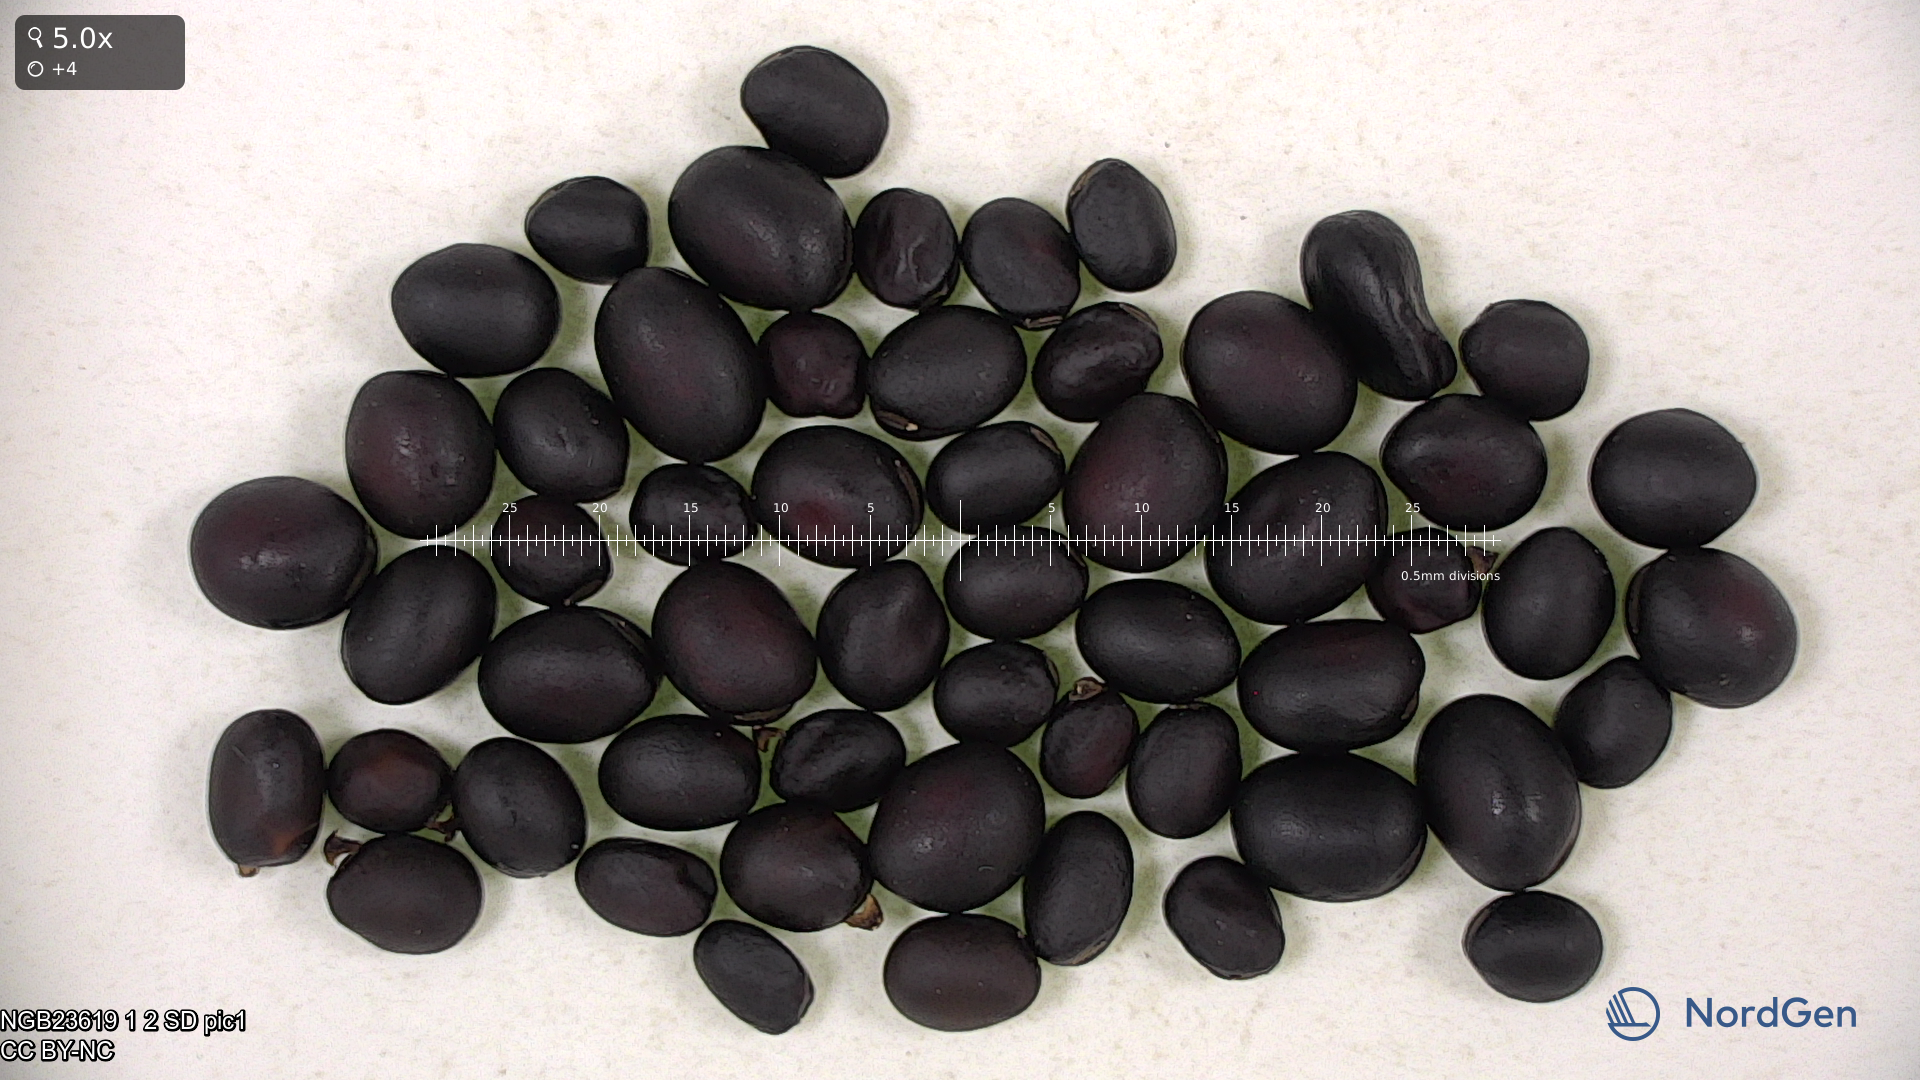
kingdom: Plantae
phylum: Tracheophyta
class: Magnoliopsida
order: Fabales
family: Fabaceae
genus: Vicia
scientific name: Vicia faba
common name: Broad bean
